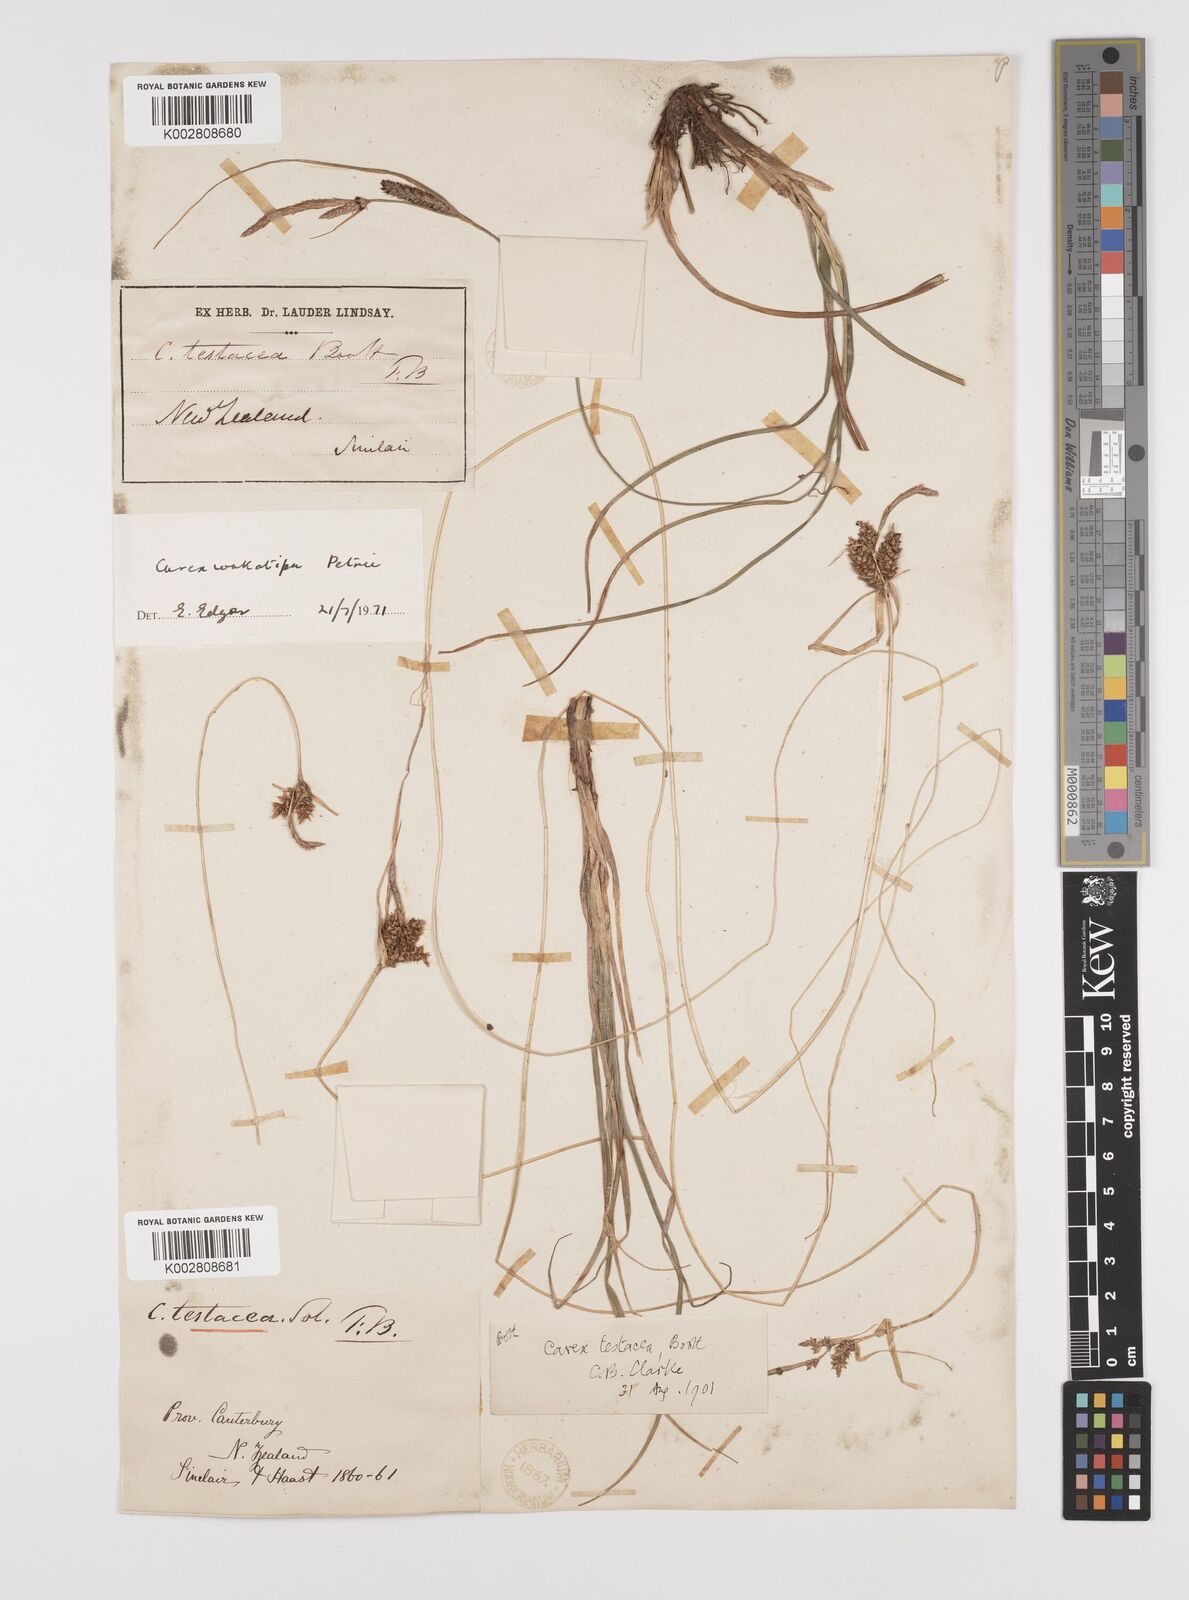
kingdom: Plantae
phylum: Tracheophyta
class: Liliopsida
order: Poales
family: Cyperaceae
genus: Carex
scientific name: Carex wakatipu
